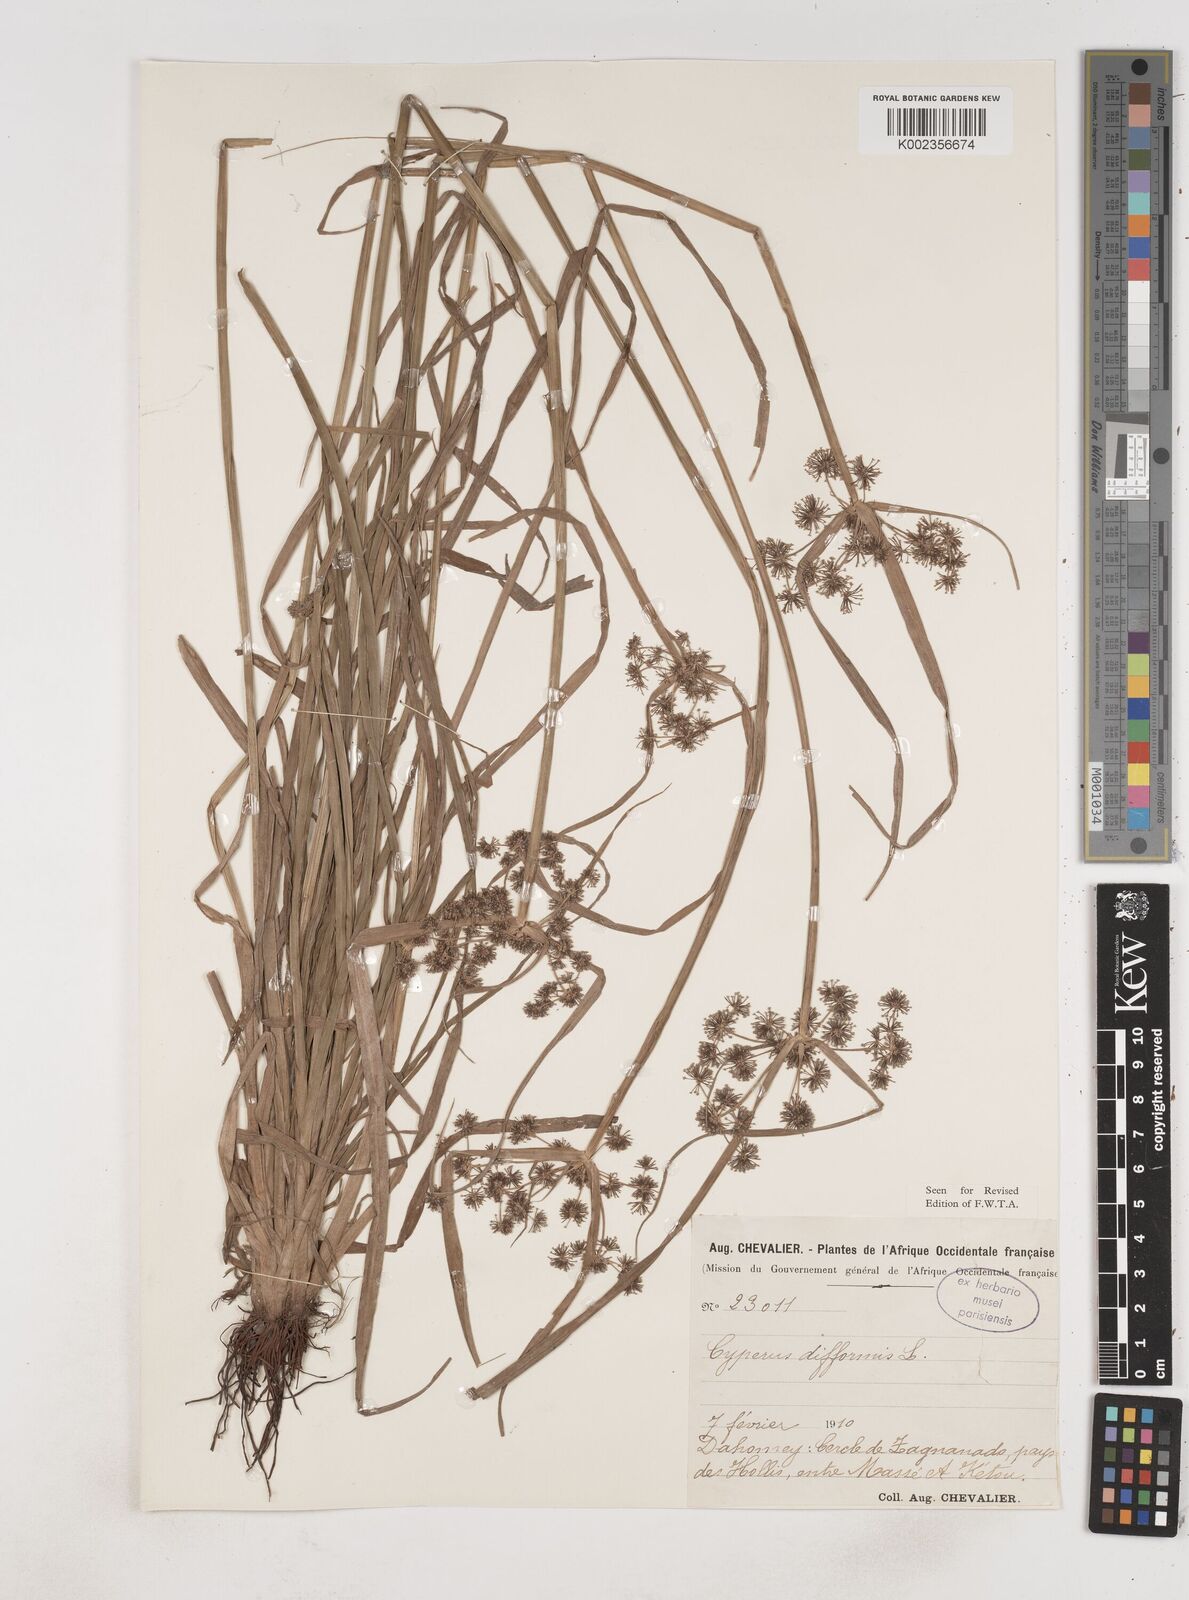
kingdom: Plantae
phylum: Tracheophyta
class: Liliopsida
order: Poales
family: Cyperaceae
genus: Cyperus
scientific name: Cyperus difformis
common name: Variable flatsedge
